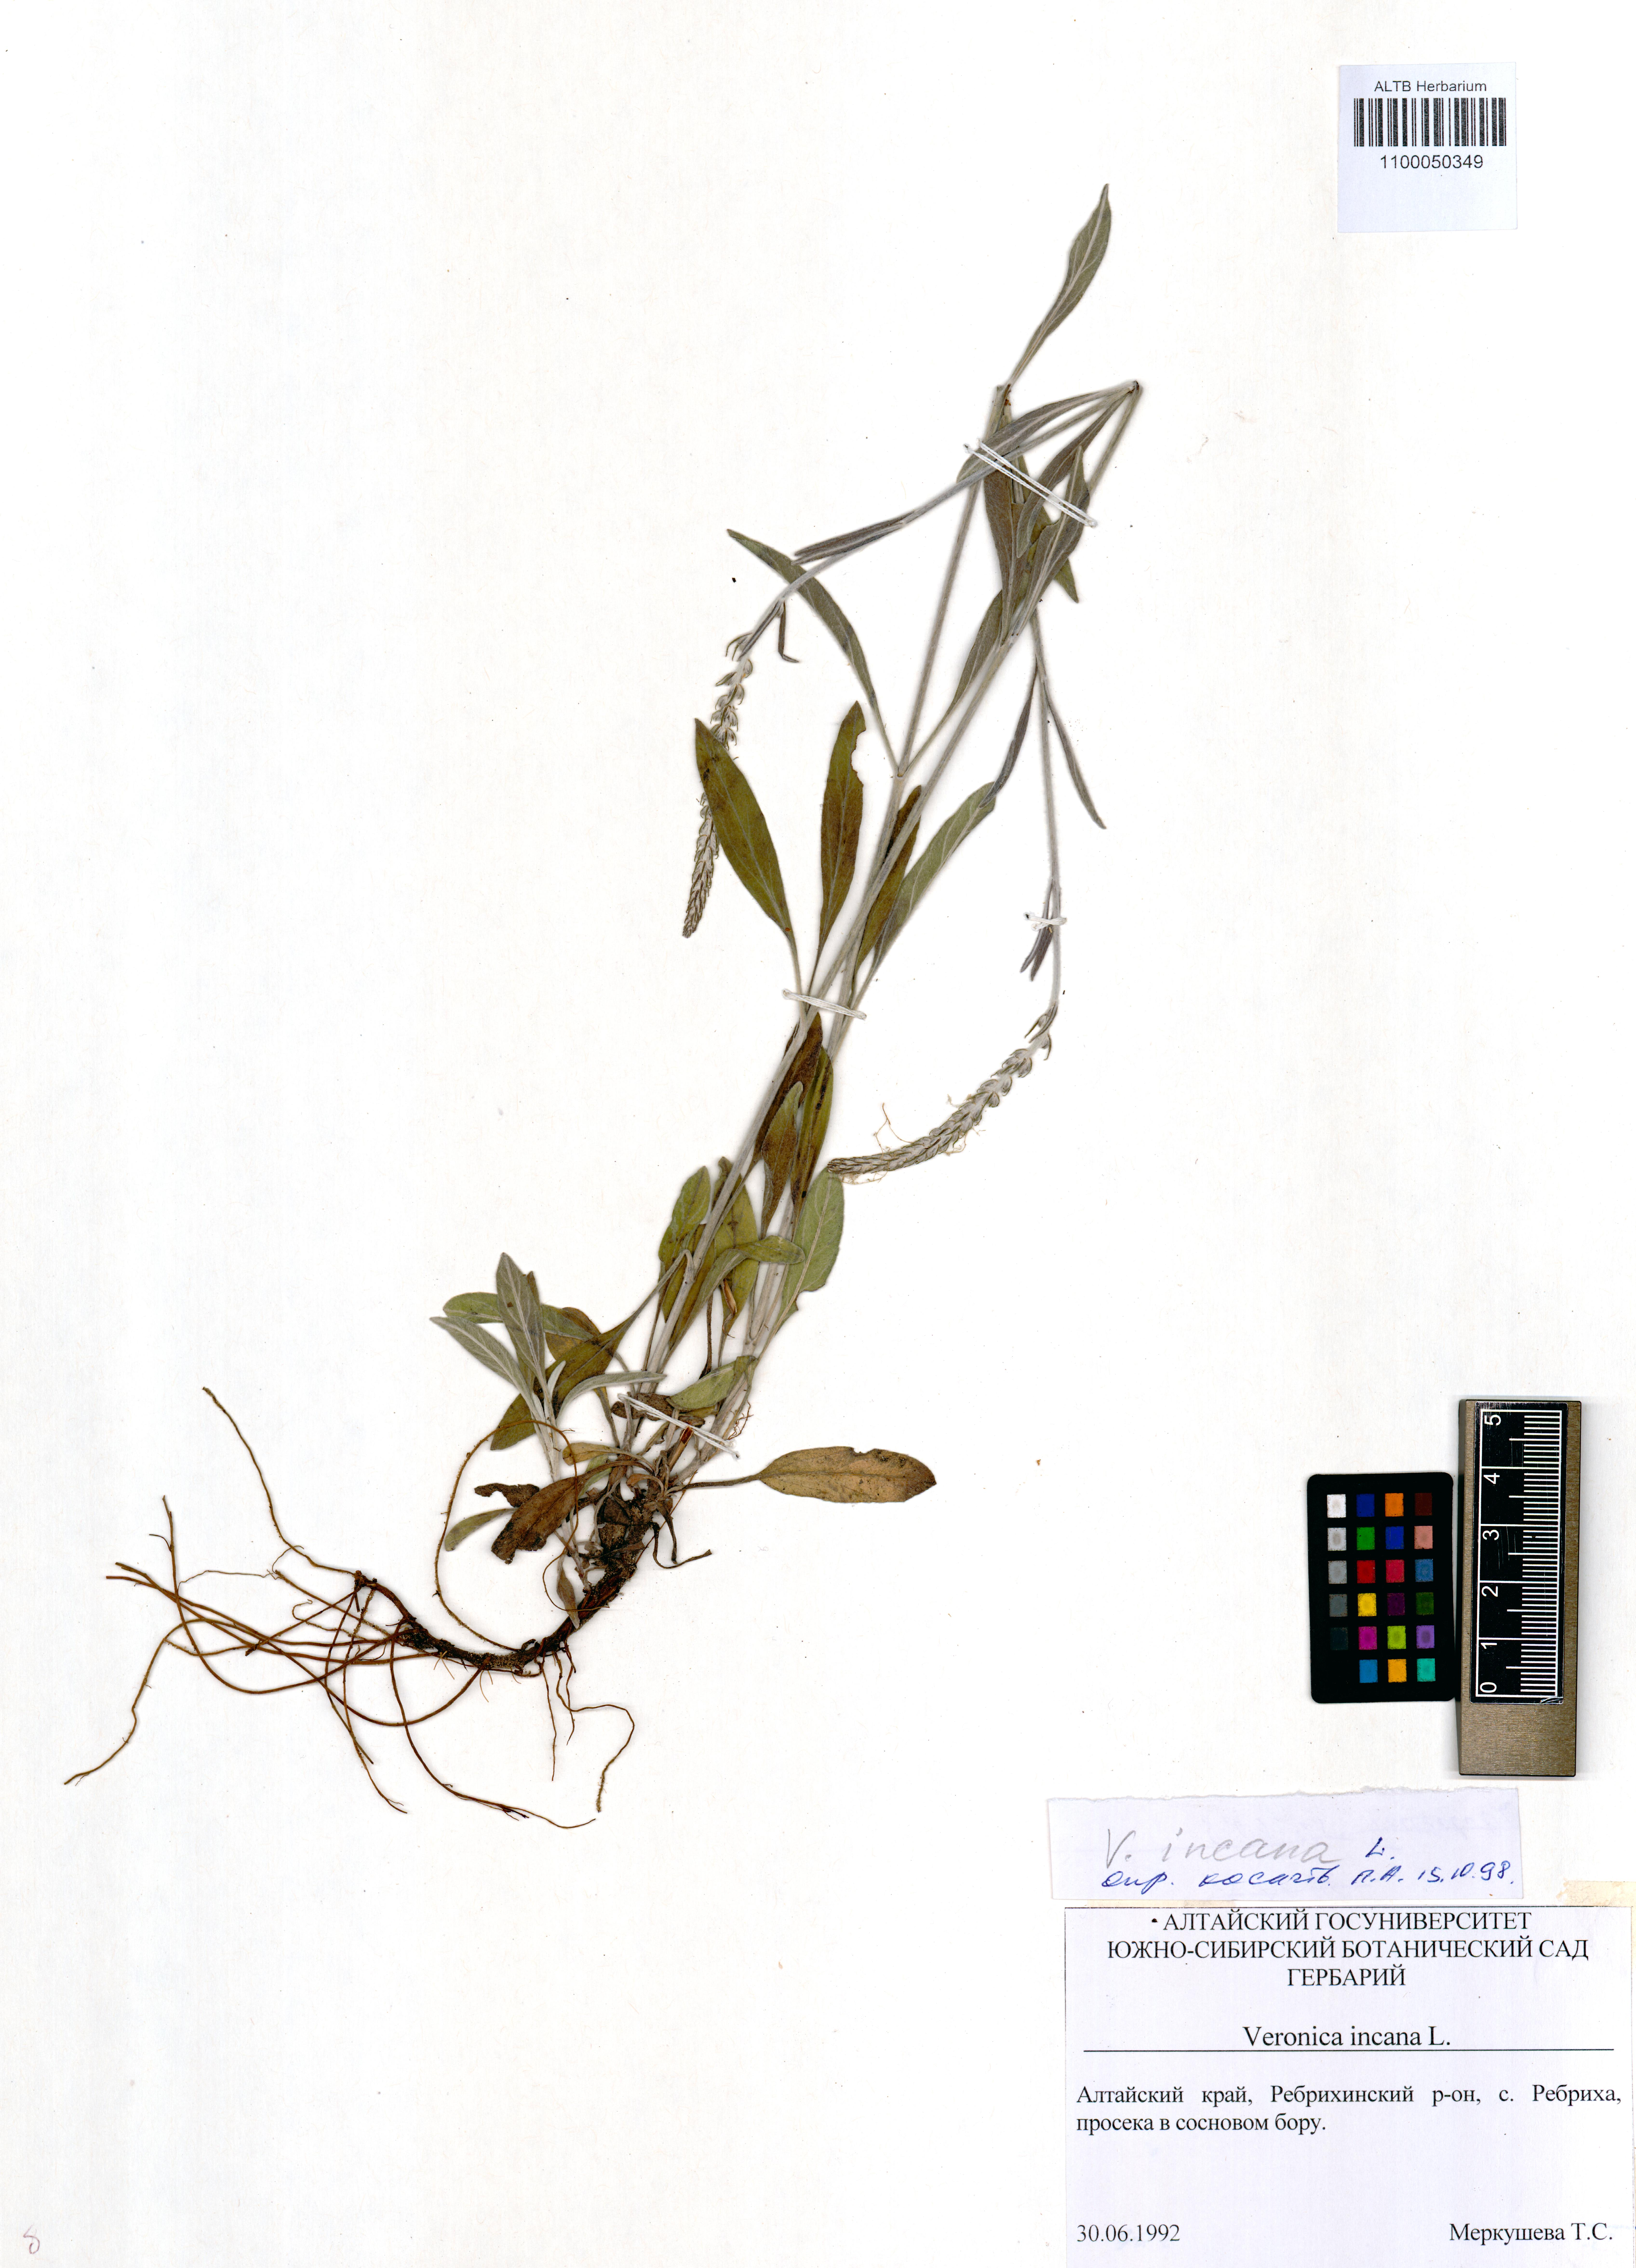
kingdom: Plantae
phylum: Tracheophyta
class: Magnoliopsida
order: Lamiales
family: Plantaginaceae
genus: Veronica
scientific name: Veronica incana
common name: Silver speedwell
